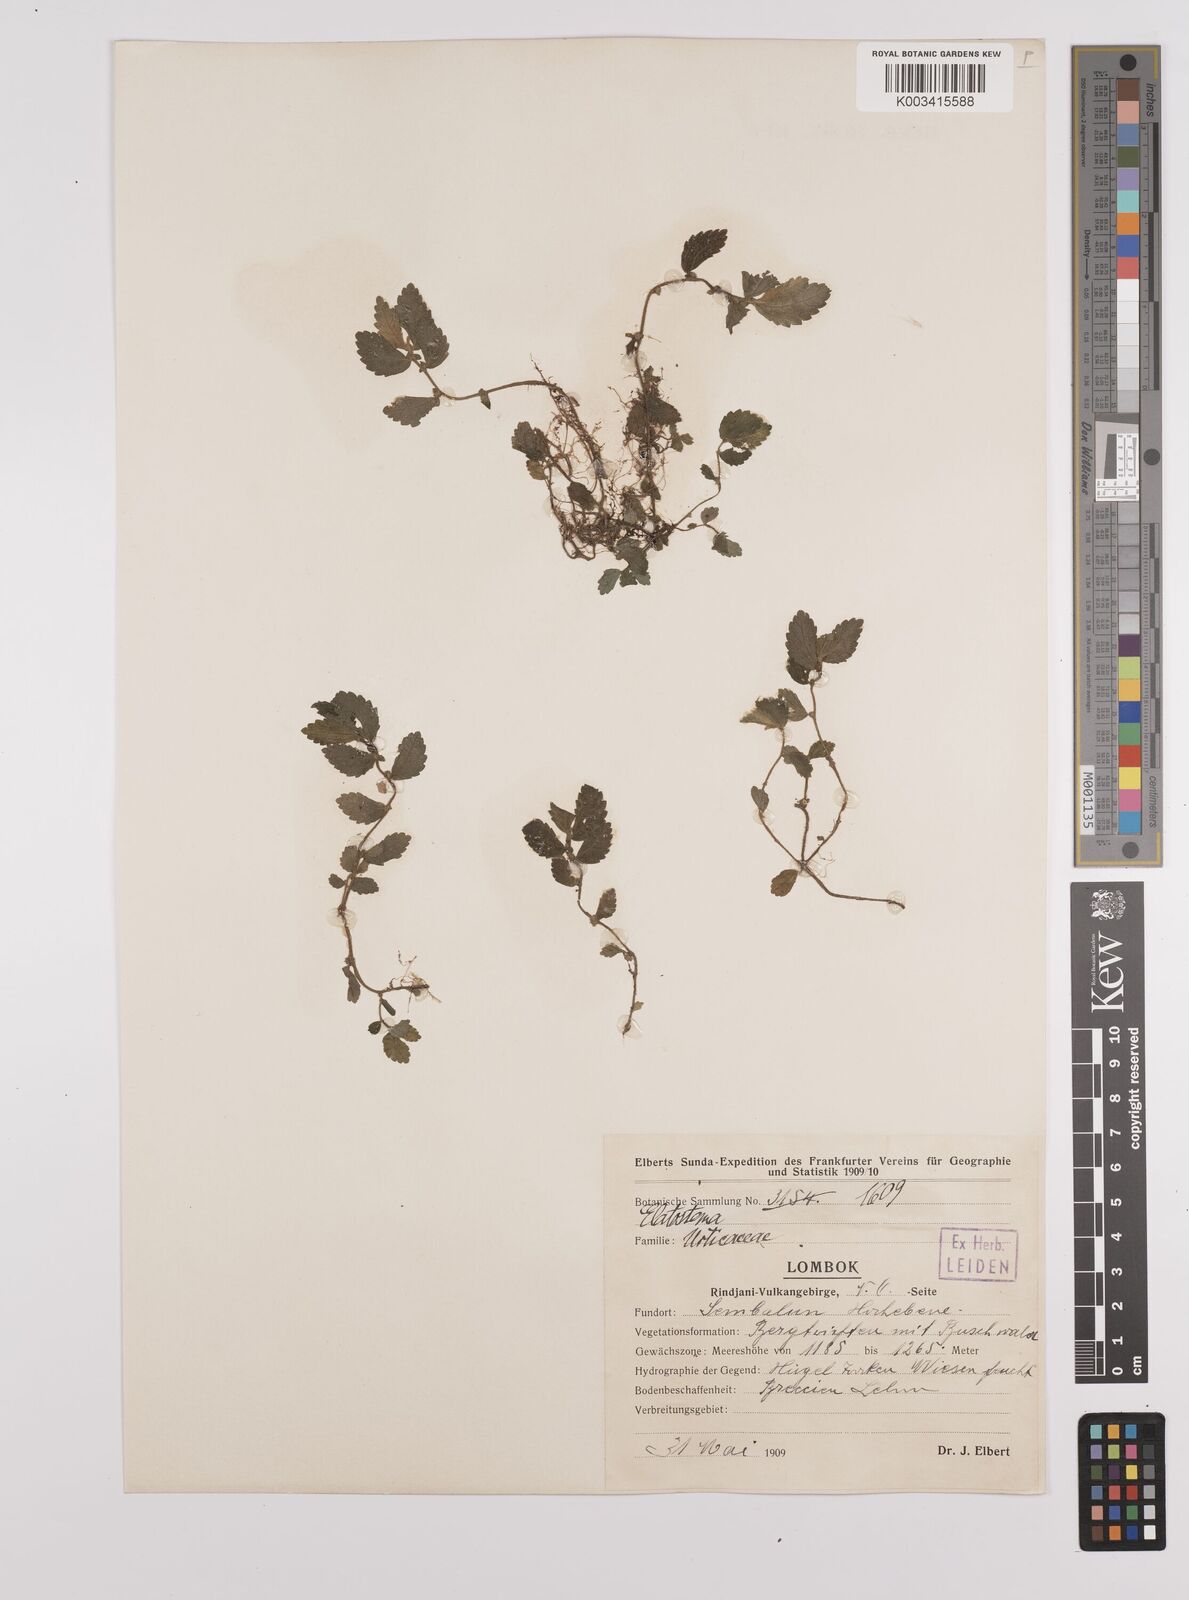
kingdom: Plantae
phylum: Tracheophyta
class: Magnoliopsida
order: Rosales
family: Urticaceae
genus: Elatostema
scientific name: Elatostema
